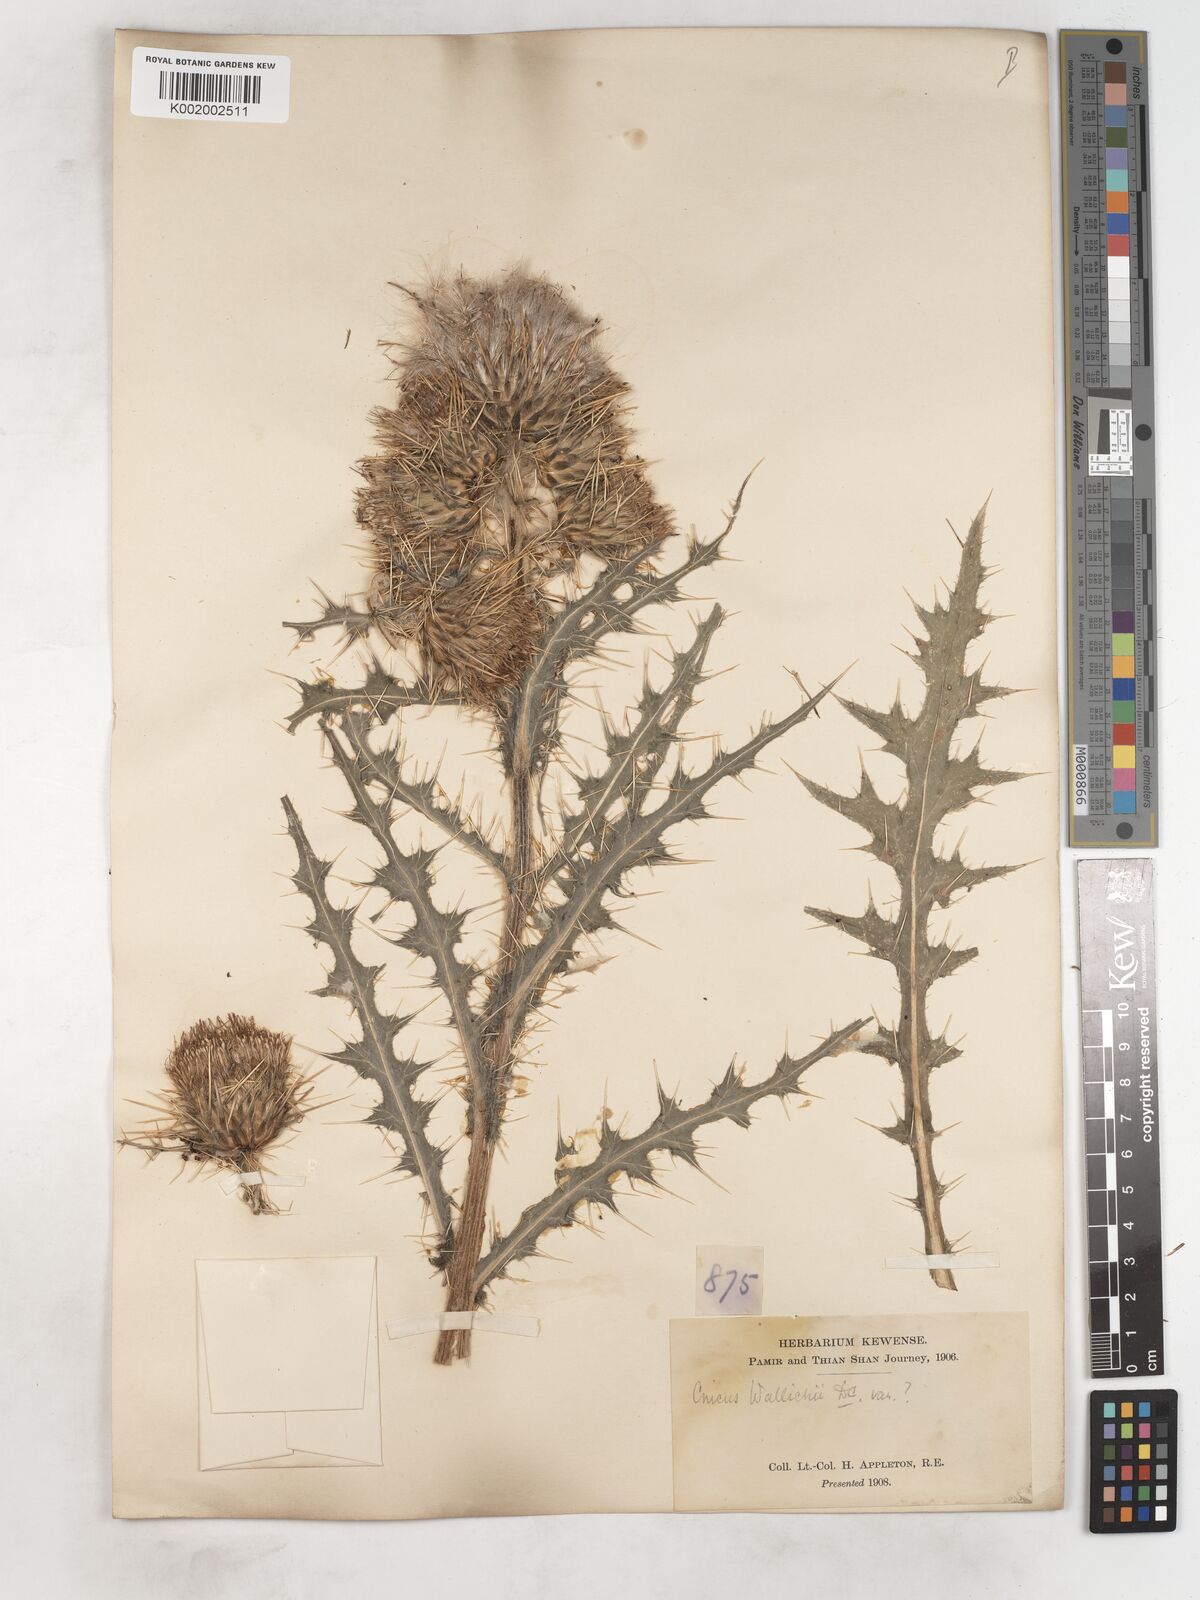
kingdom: Plantae
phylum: Tracheophyta
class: Magnoliopsida
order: Asterales
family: Asteraceae
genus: Cirsium
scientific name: Cirsium wallichii
